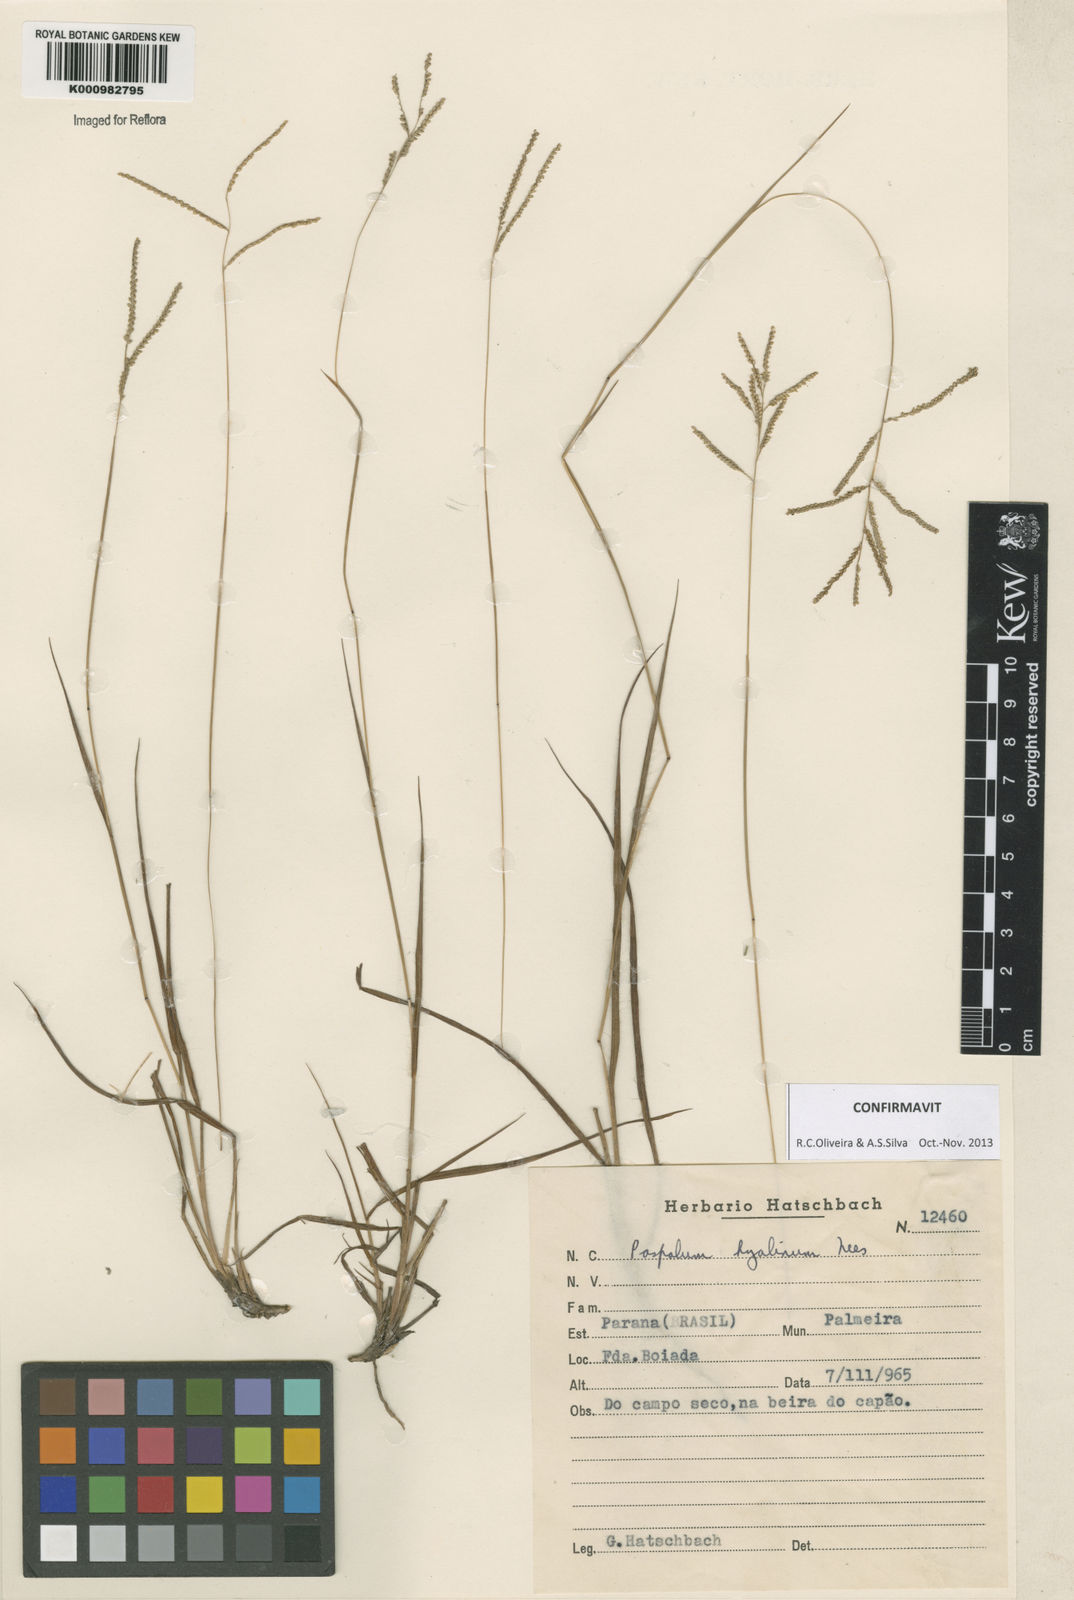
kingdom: Plantae
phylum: Tracheophyta
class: Liliopsida
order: Poales
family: Poaceae
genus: Paspalum
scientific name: Paspalum hyalinum
